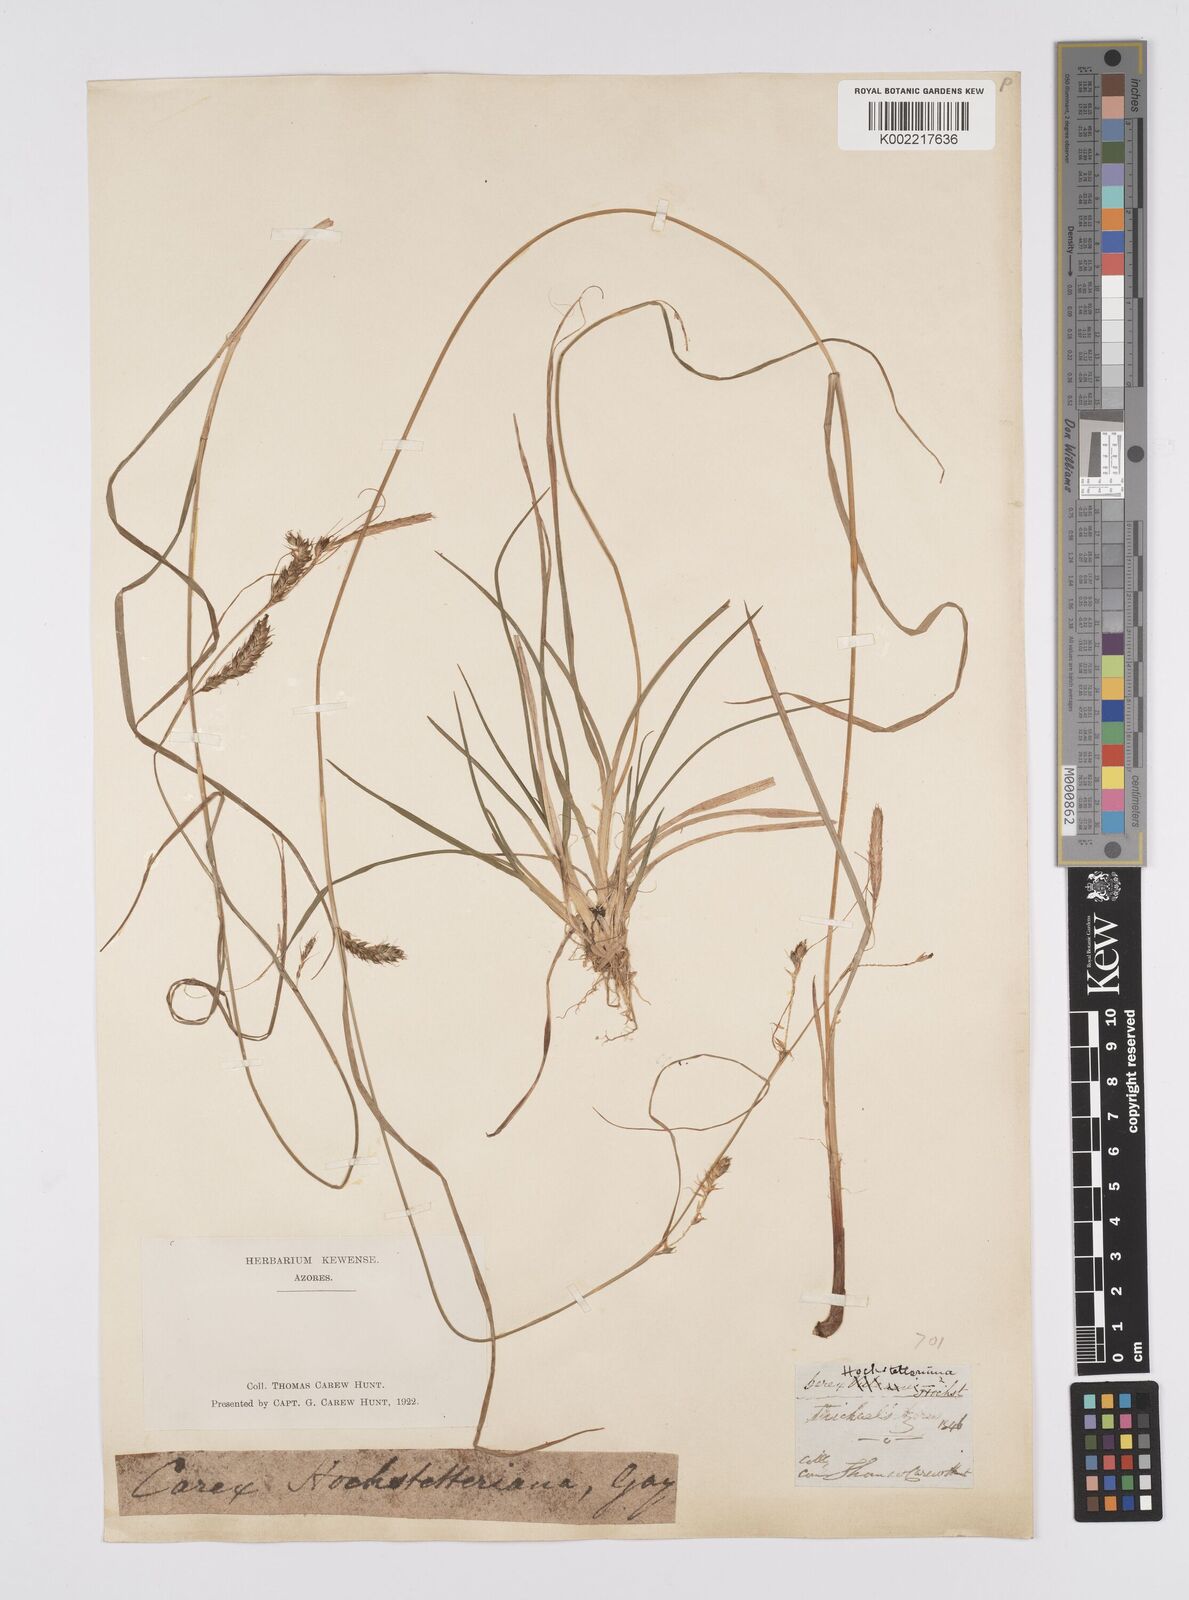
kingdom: Plantae
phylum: Tracheophyta
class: Liliopsida
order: Poales
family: Cyperaceae
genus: Carex
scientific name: Carex hochstetteriana
